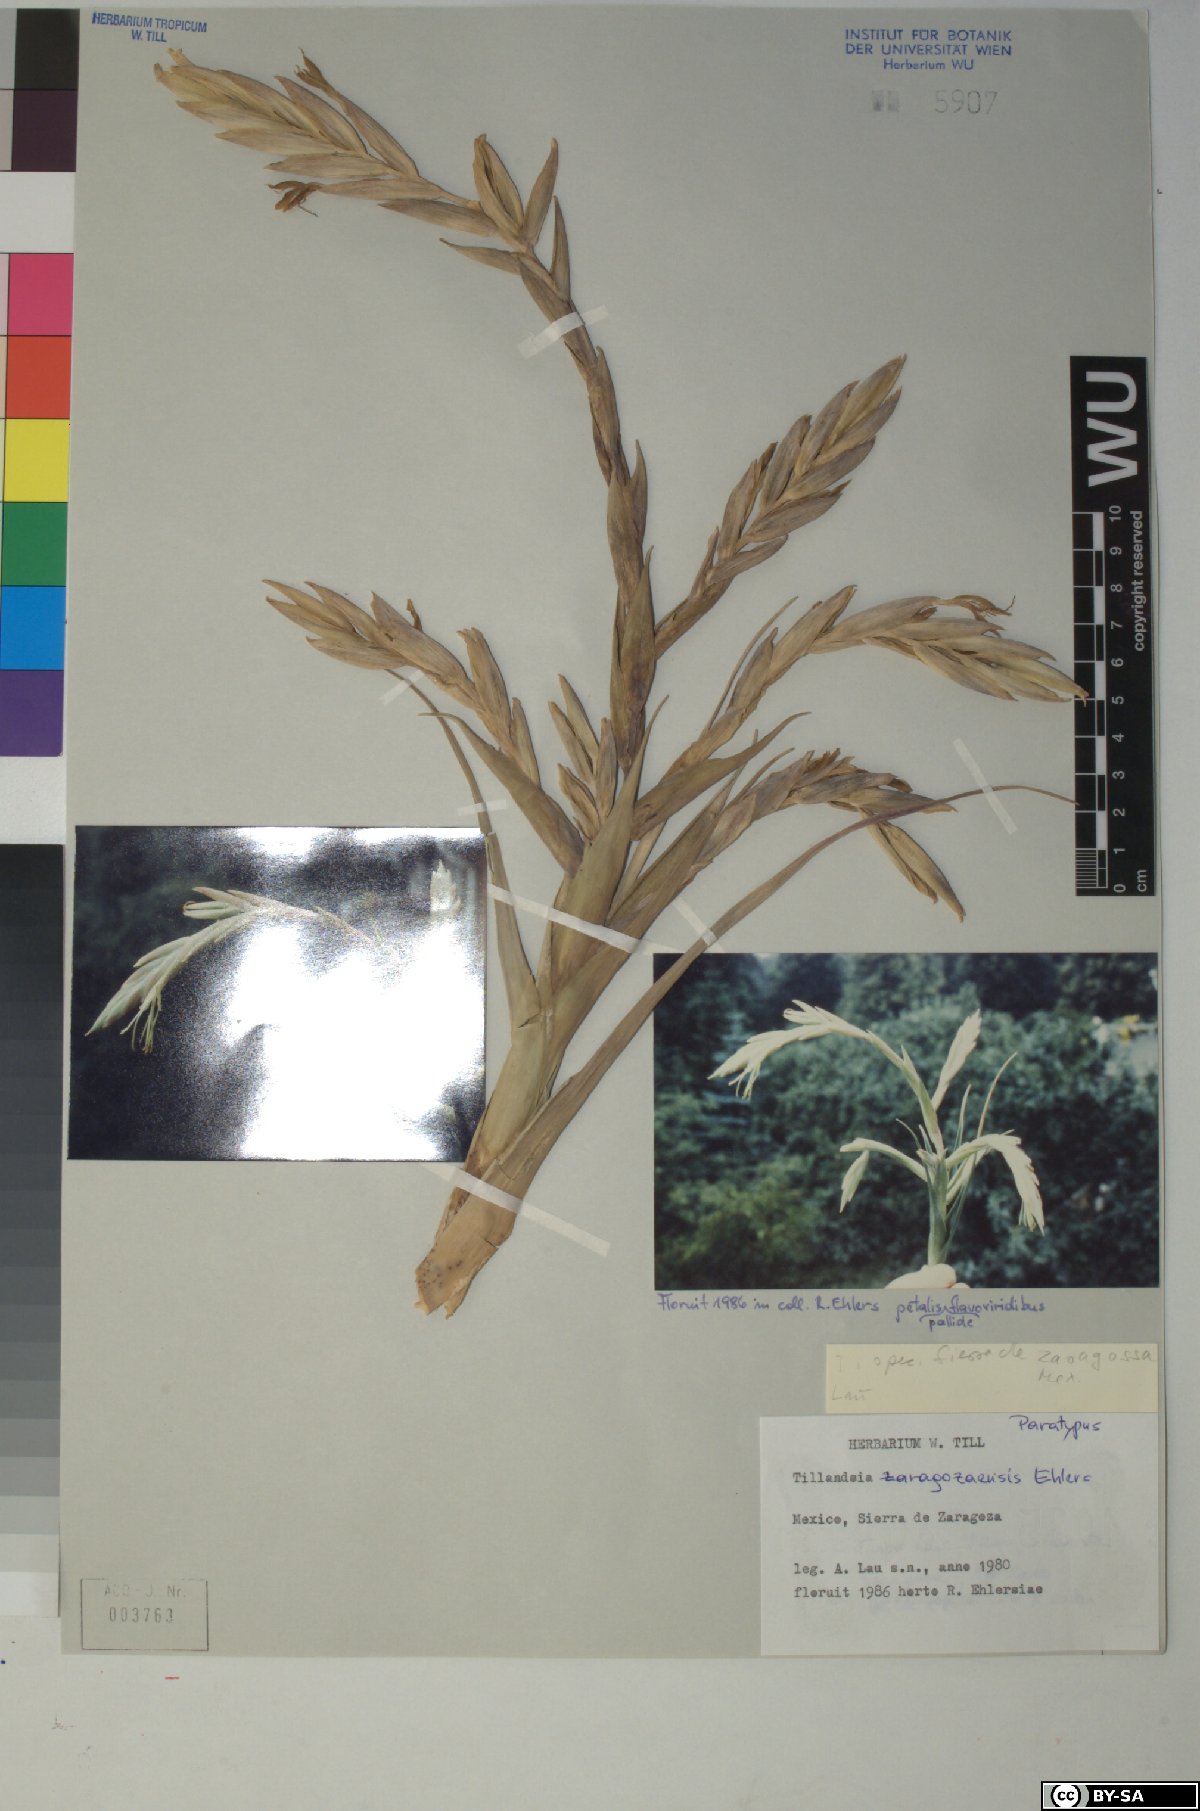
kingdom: Plantae
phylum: Tracheophyta
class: Liliopsida
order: Poales
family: Bromeliaceae
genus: Tillandsia
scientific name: Tillandsia zaragozaensis
